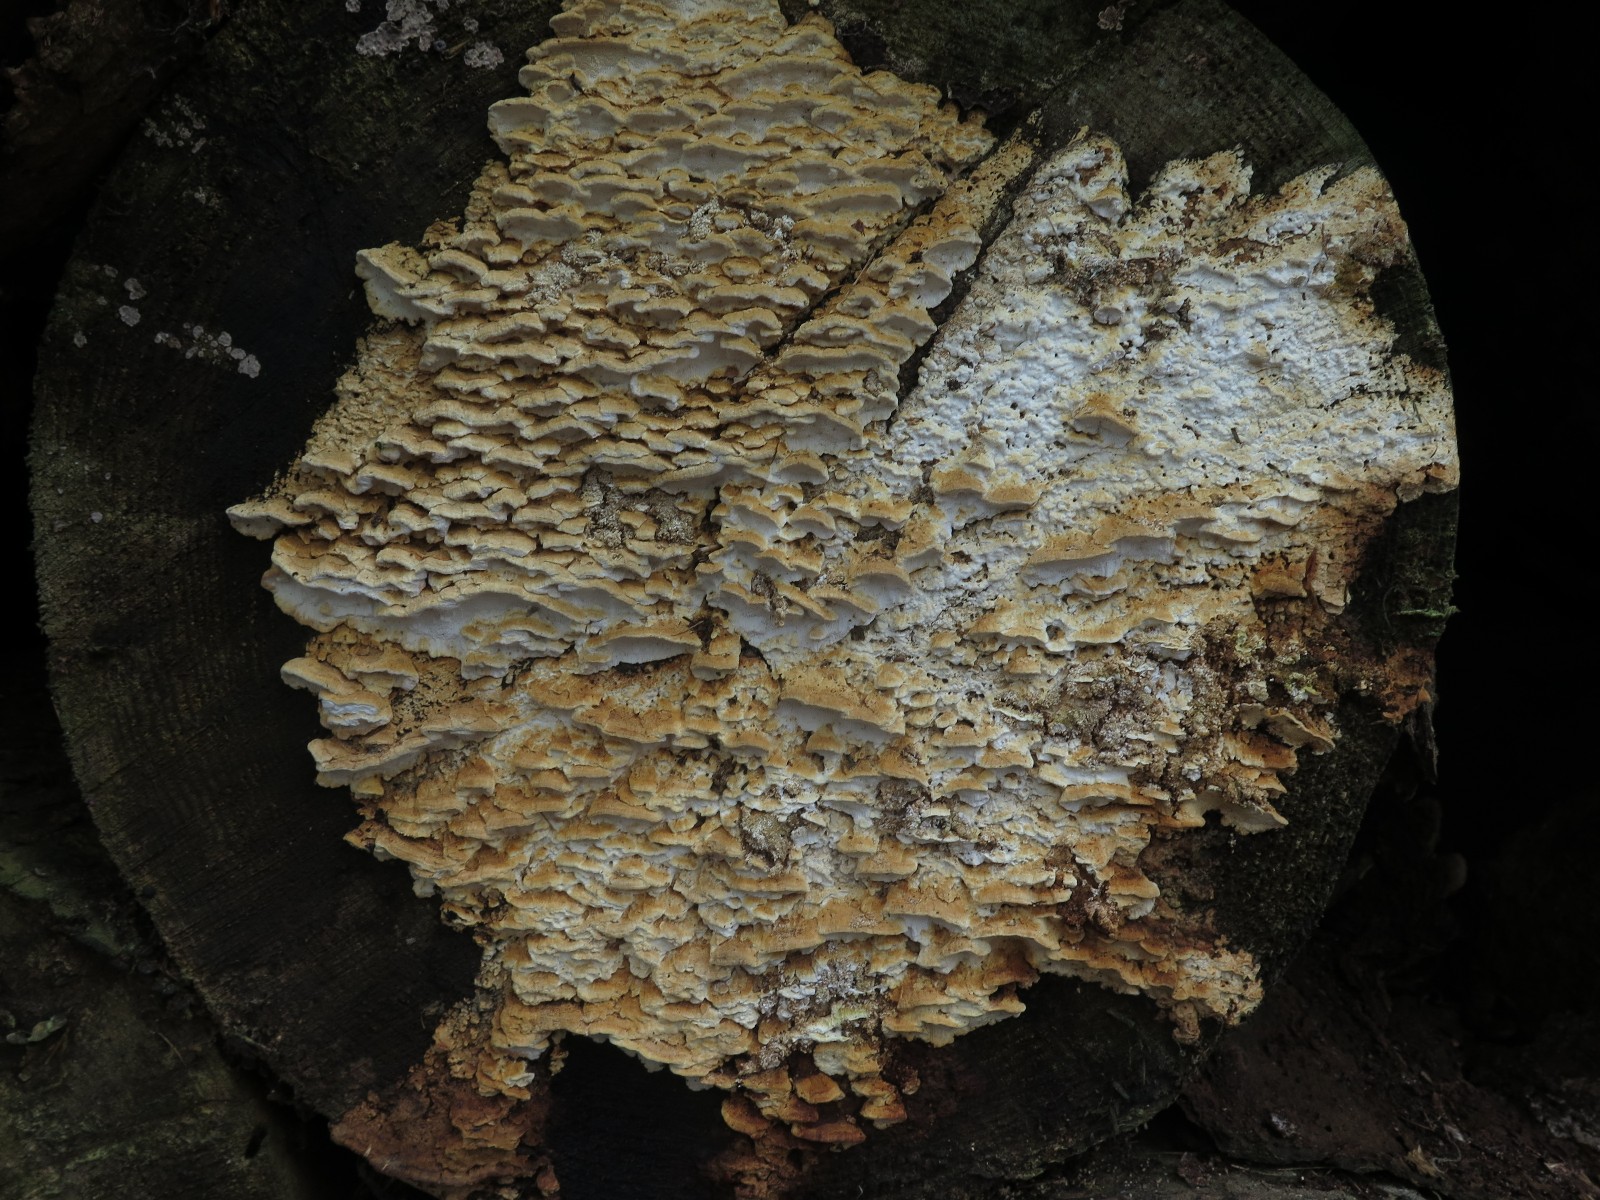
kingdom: Fungi
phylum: Basidiomycota
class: Agaricomycetes
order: Polyporales
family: Fomitopsidaceae
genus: Neoantrodia
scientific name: Neoantrodia serialis
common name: række-sejporesvamp
